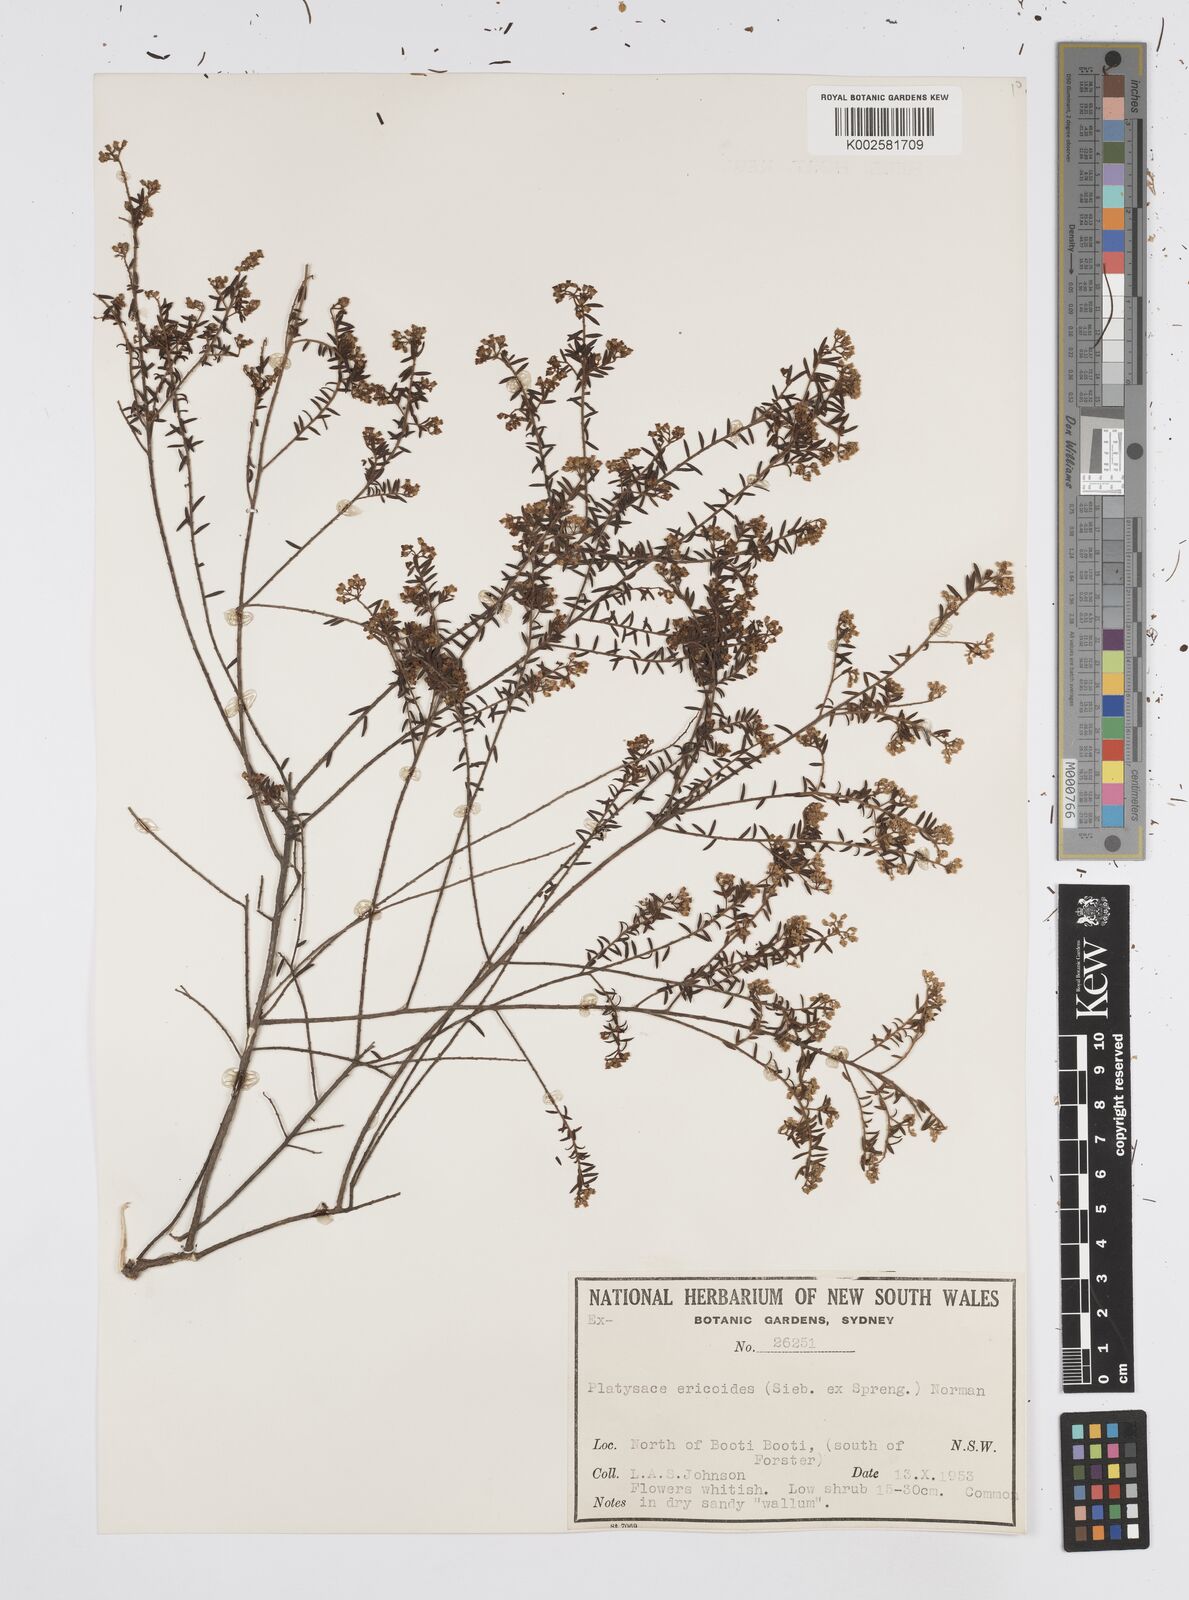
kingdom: Plantae
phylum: Tracheophyta
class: Magnoliopsida
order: Apiales
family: Apiaceae
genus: Platysace
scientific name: Platysace ericoides
